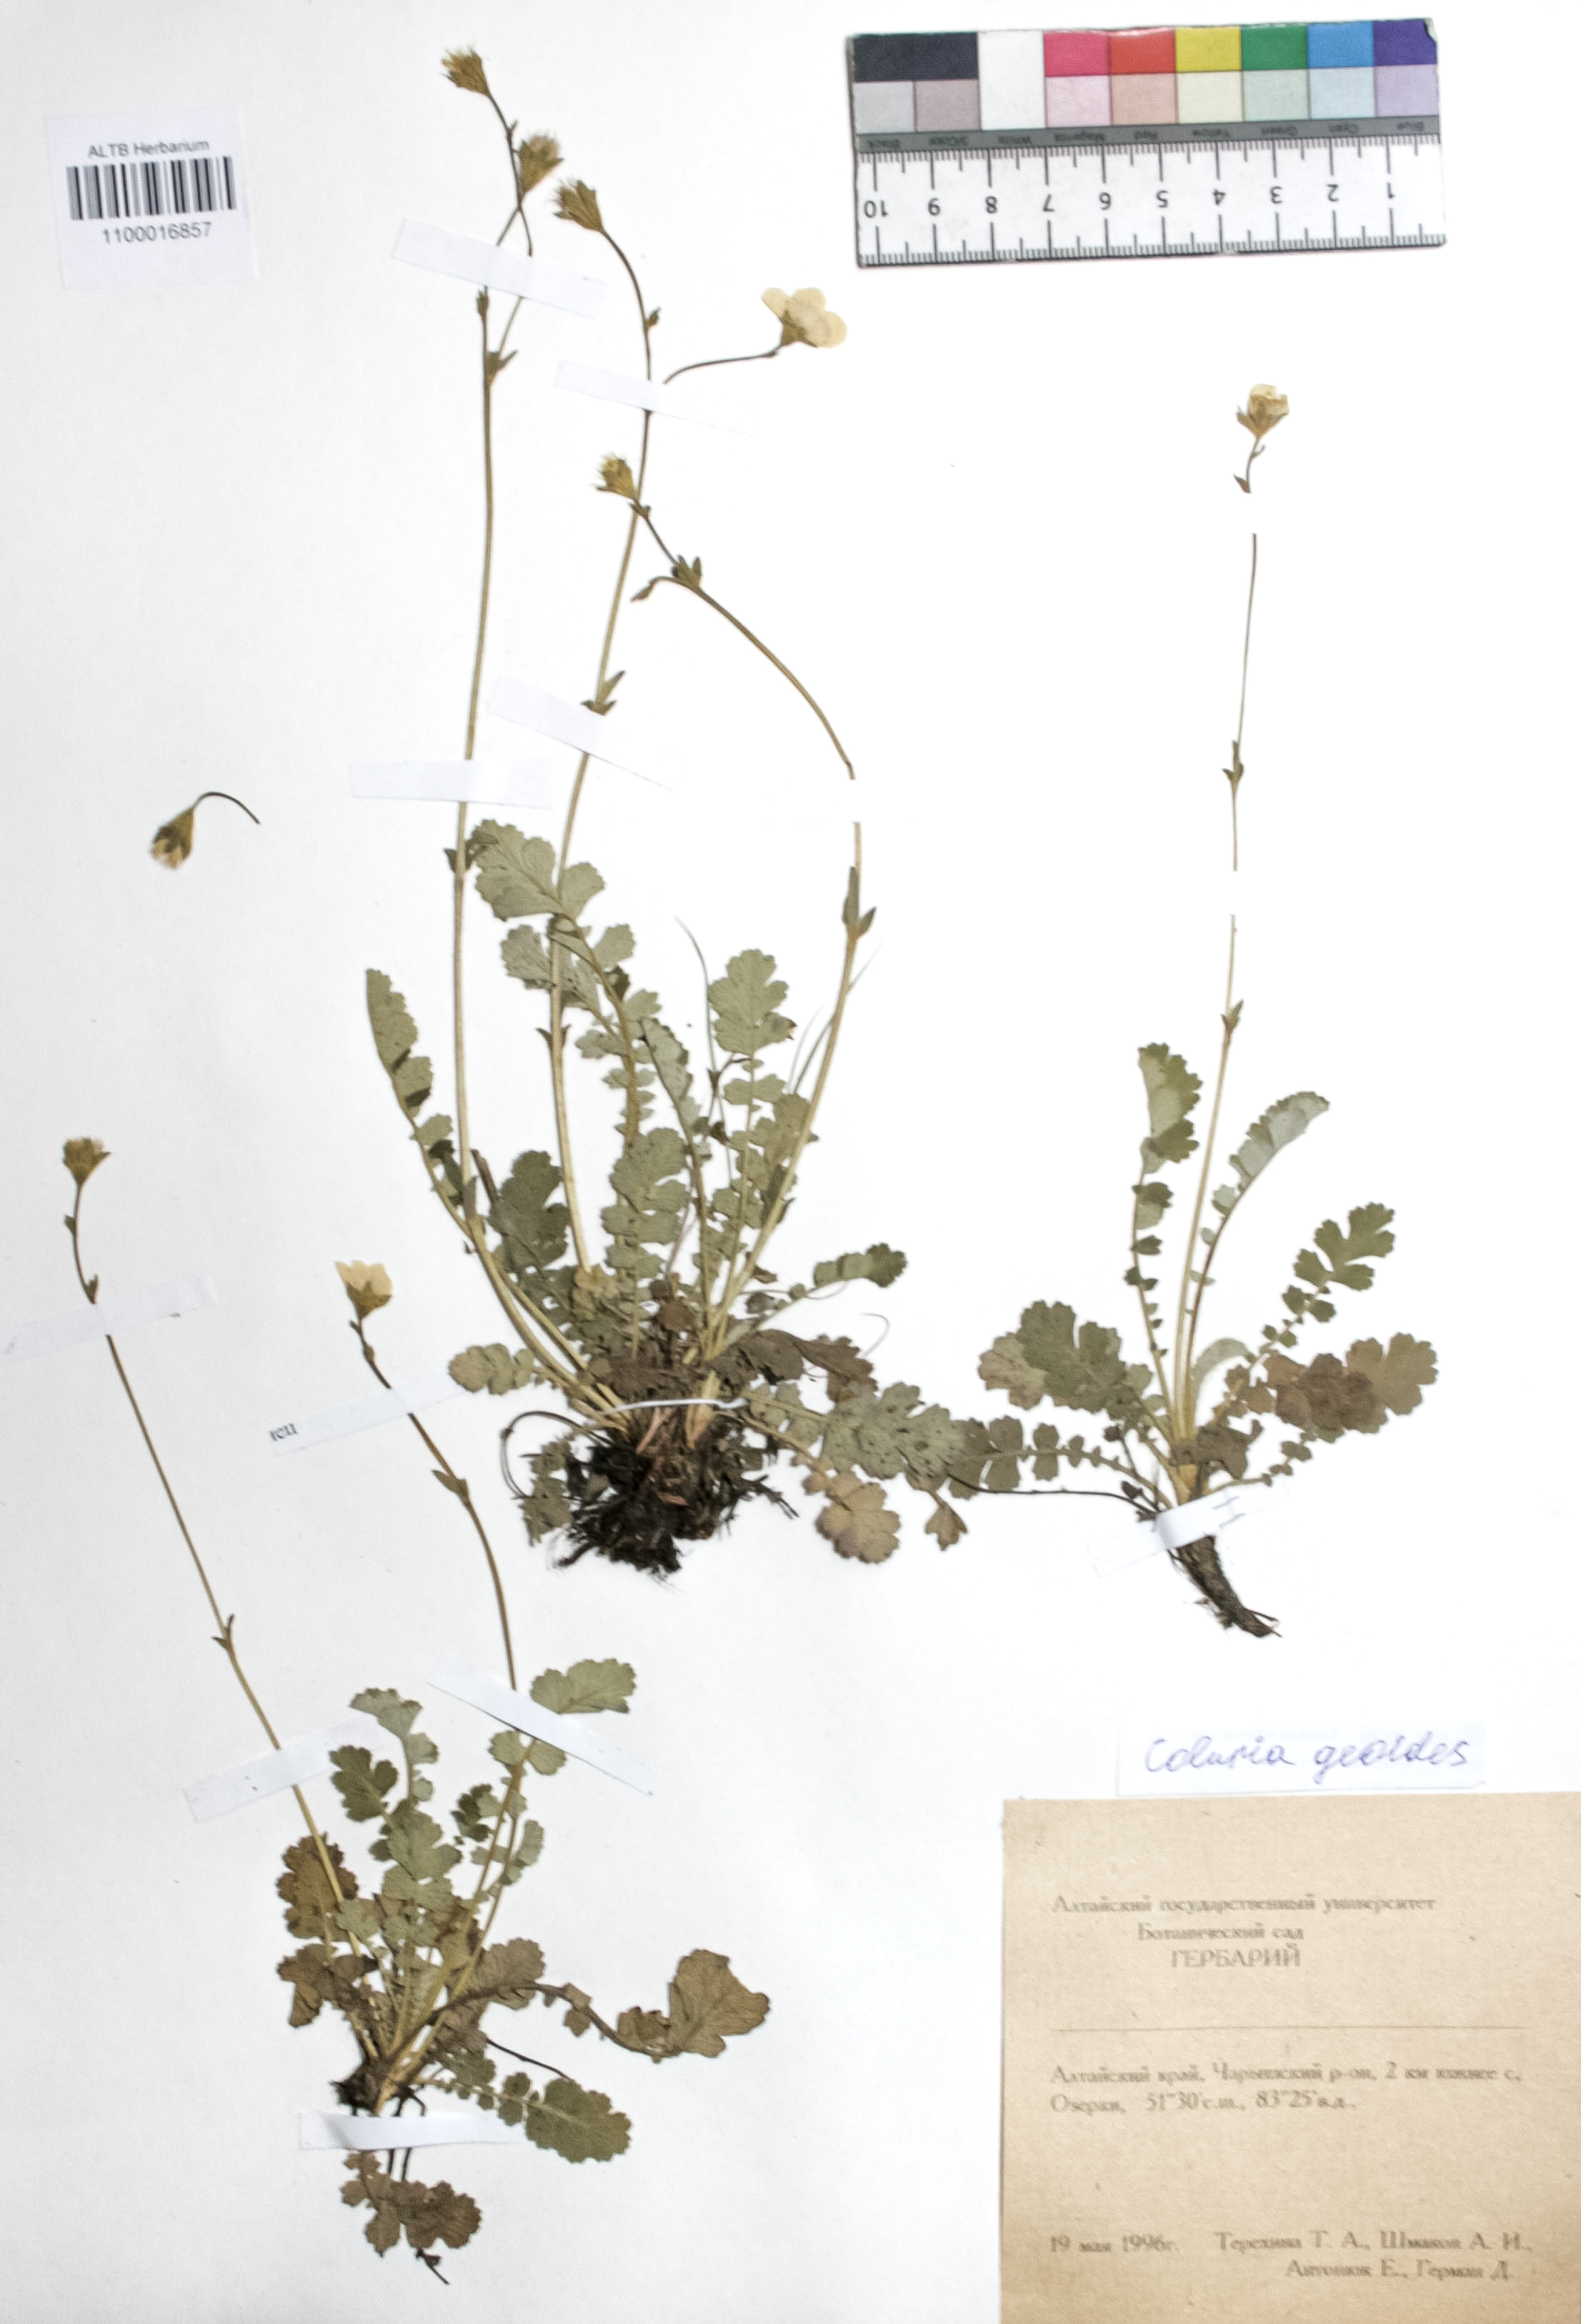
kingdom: Plantae
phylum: Tracheophyta
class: Magnoliopsida
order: Rosales
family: Rosaceae
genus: Geum
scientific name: Geum geoides
